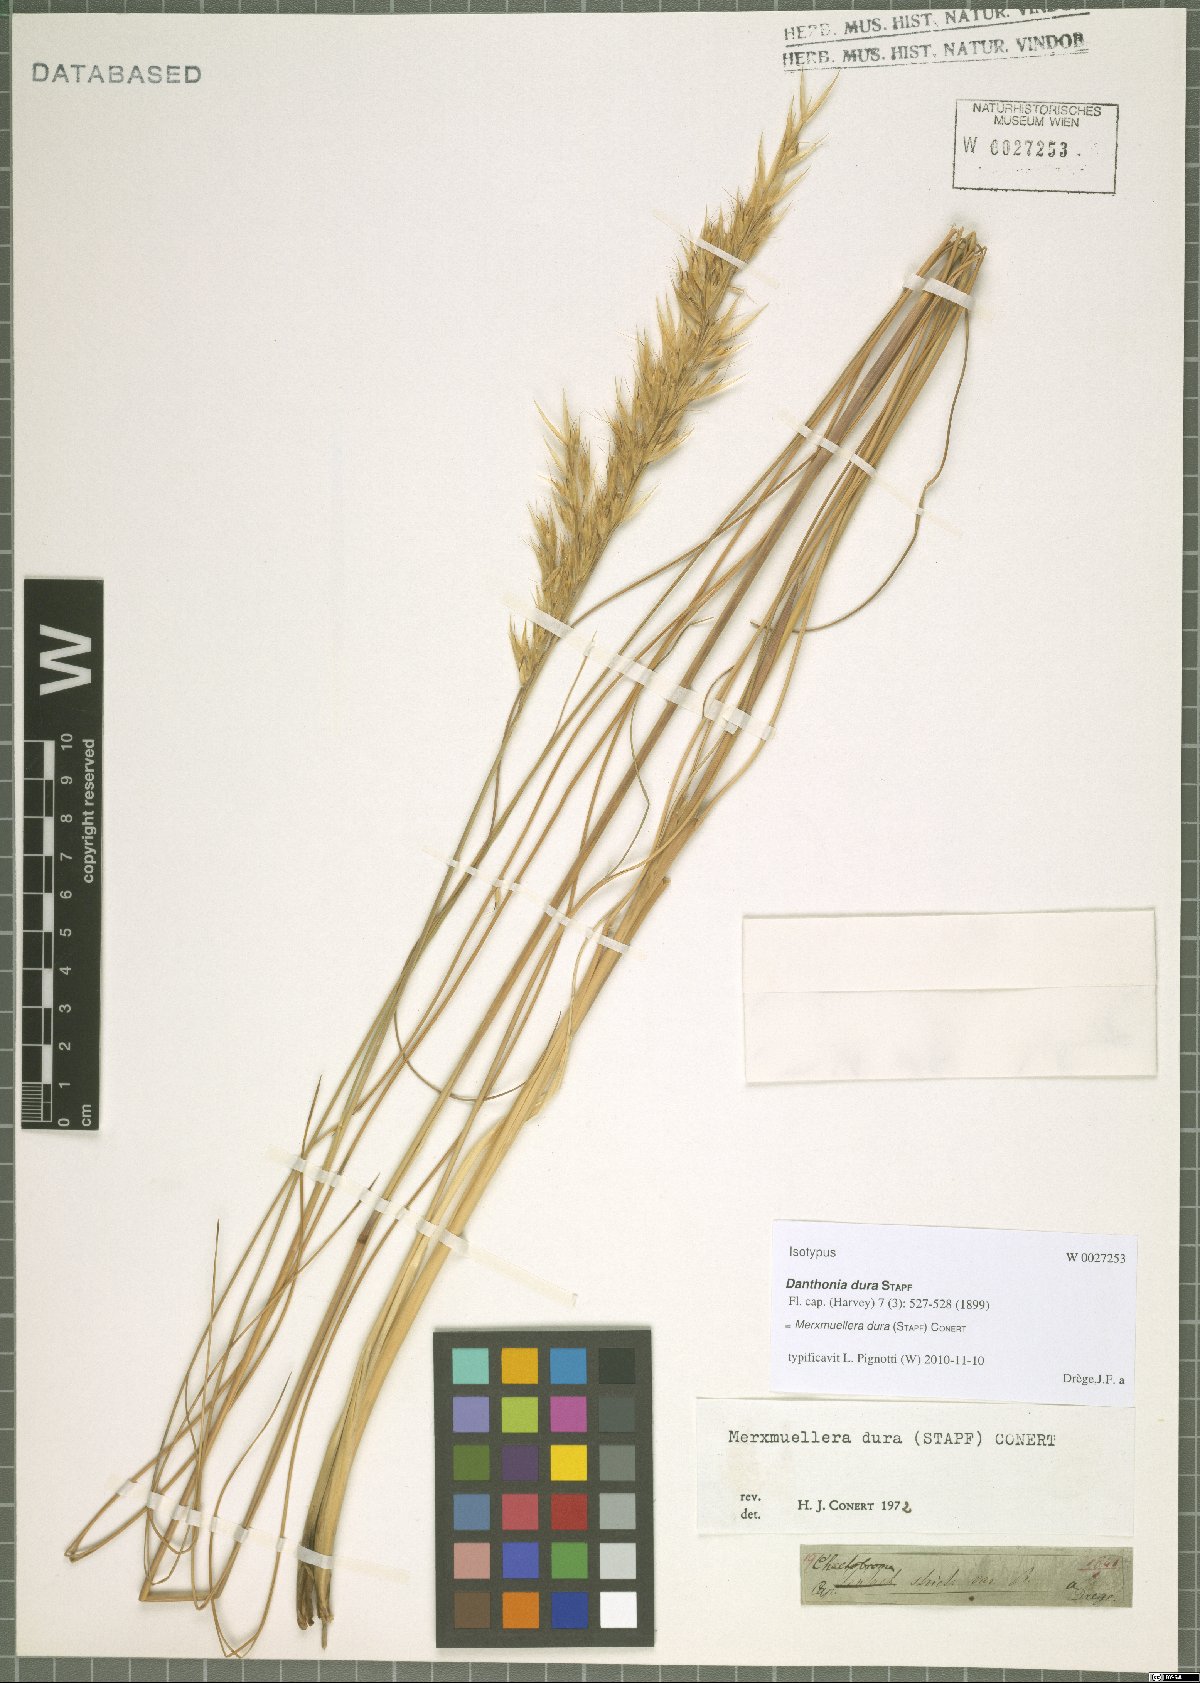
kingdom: Plantae
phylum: Tracheophyta
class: Liliopsida
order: Poales
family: Poaceae
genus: Tenaxia
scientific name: Tenaxia dura
